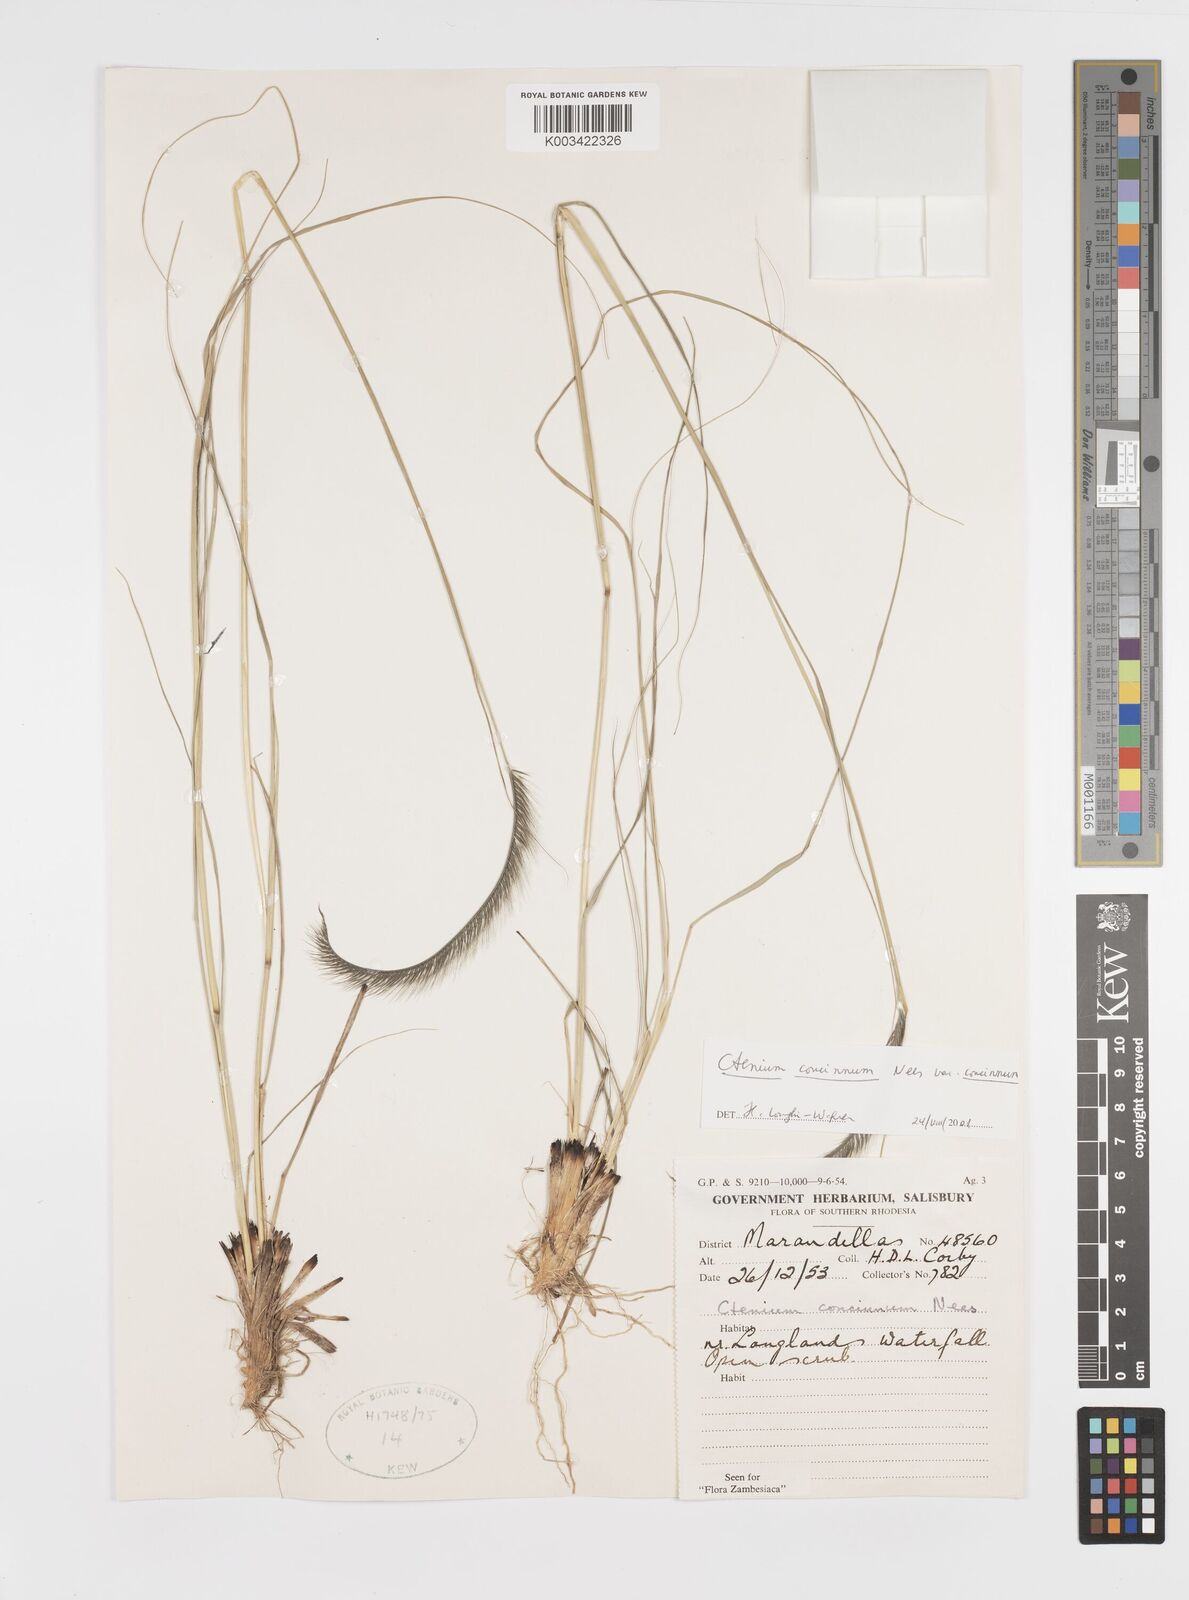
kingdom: Plantae
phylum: Tracheophyta
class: Liliopsida
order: Poales
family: Poaceae
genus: Ctenium
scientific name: Ctenium concinnum
